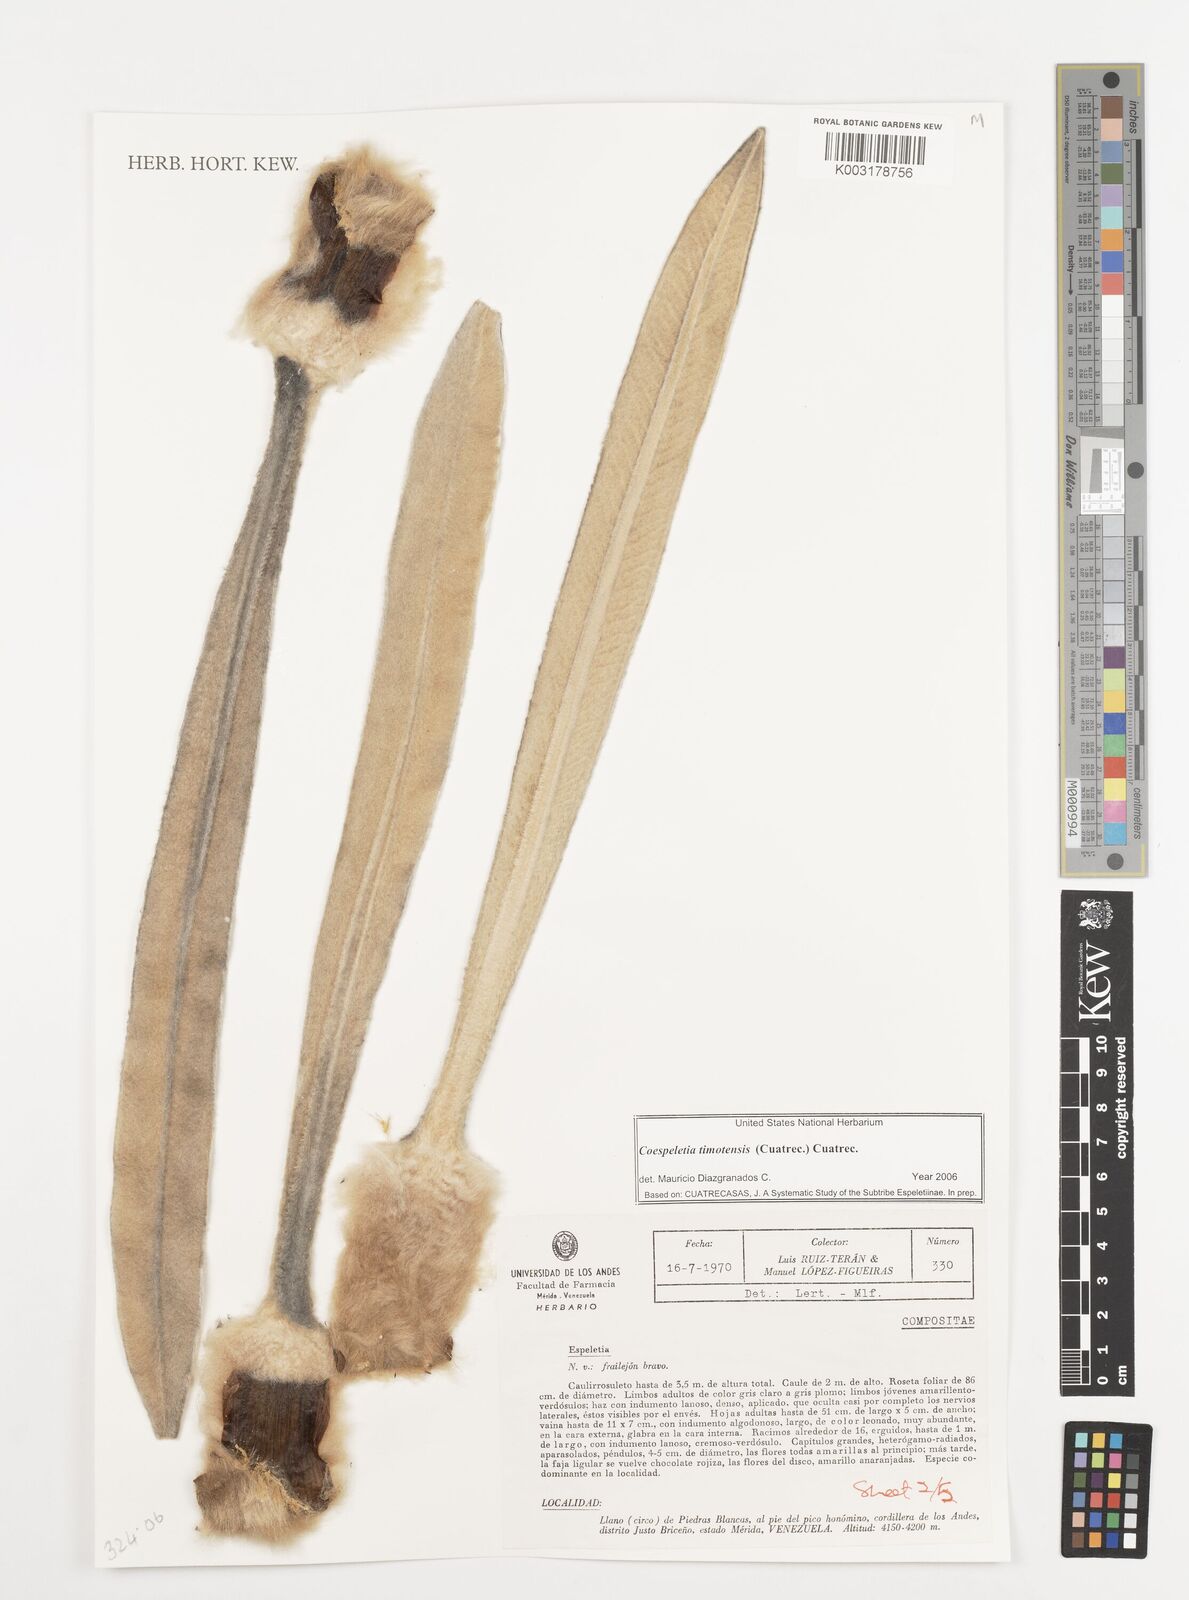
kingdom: Plantae
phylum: Tracheophyta
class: Magnoliopsida
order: Asterales
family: Asteraceae
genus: Espeletia
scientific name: Espeletia timotensis
